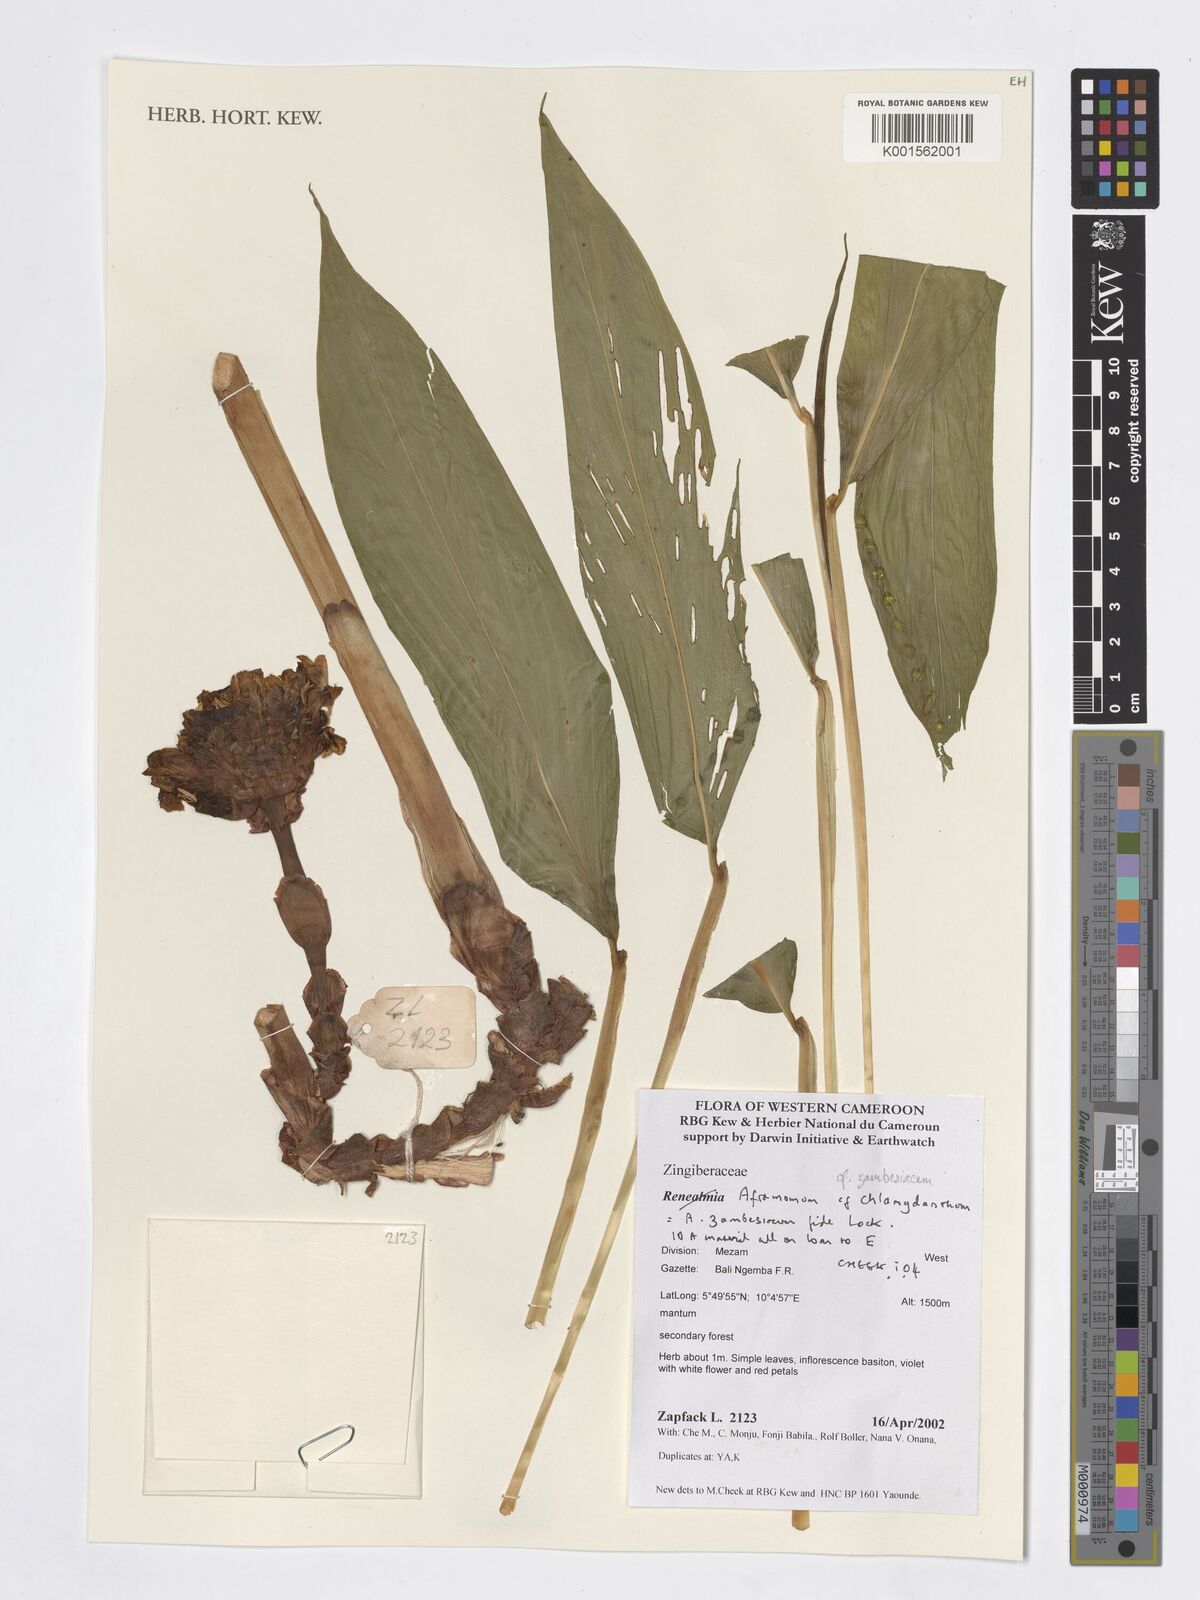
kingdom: Plantae
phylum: Tracheophyta
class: Liliopsida
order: Zingiberales
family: Zingiberaceae
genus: Aframomum
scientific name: Aframomum zambesiacum
